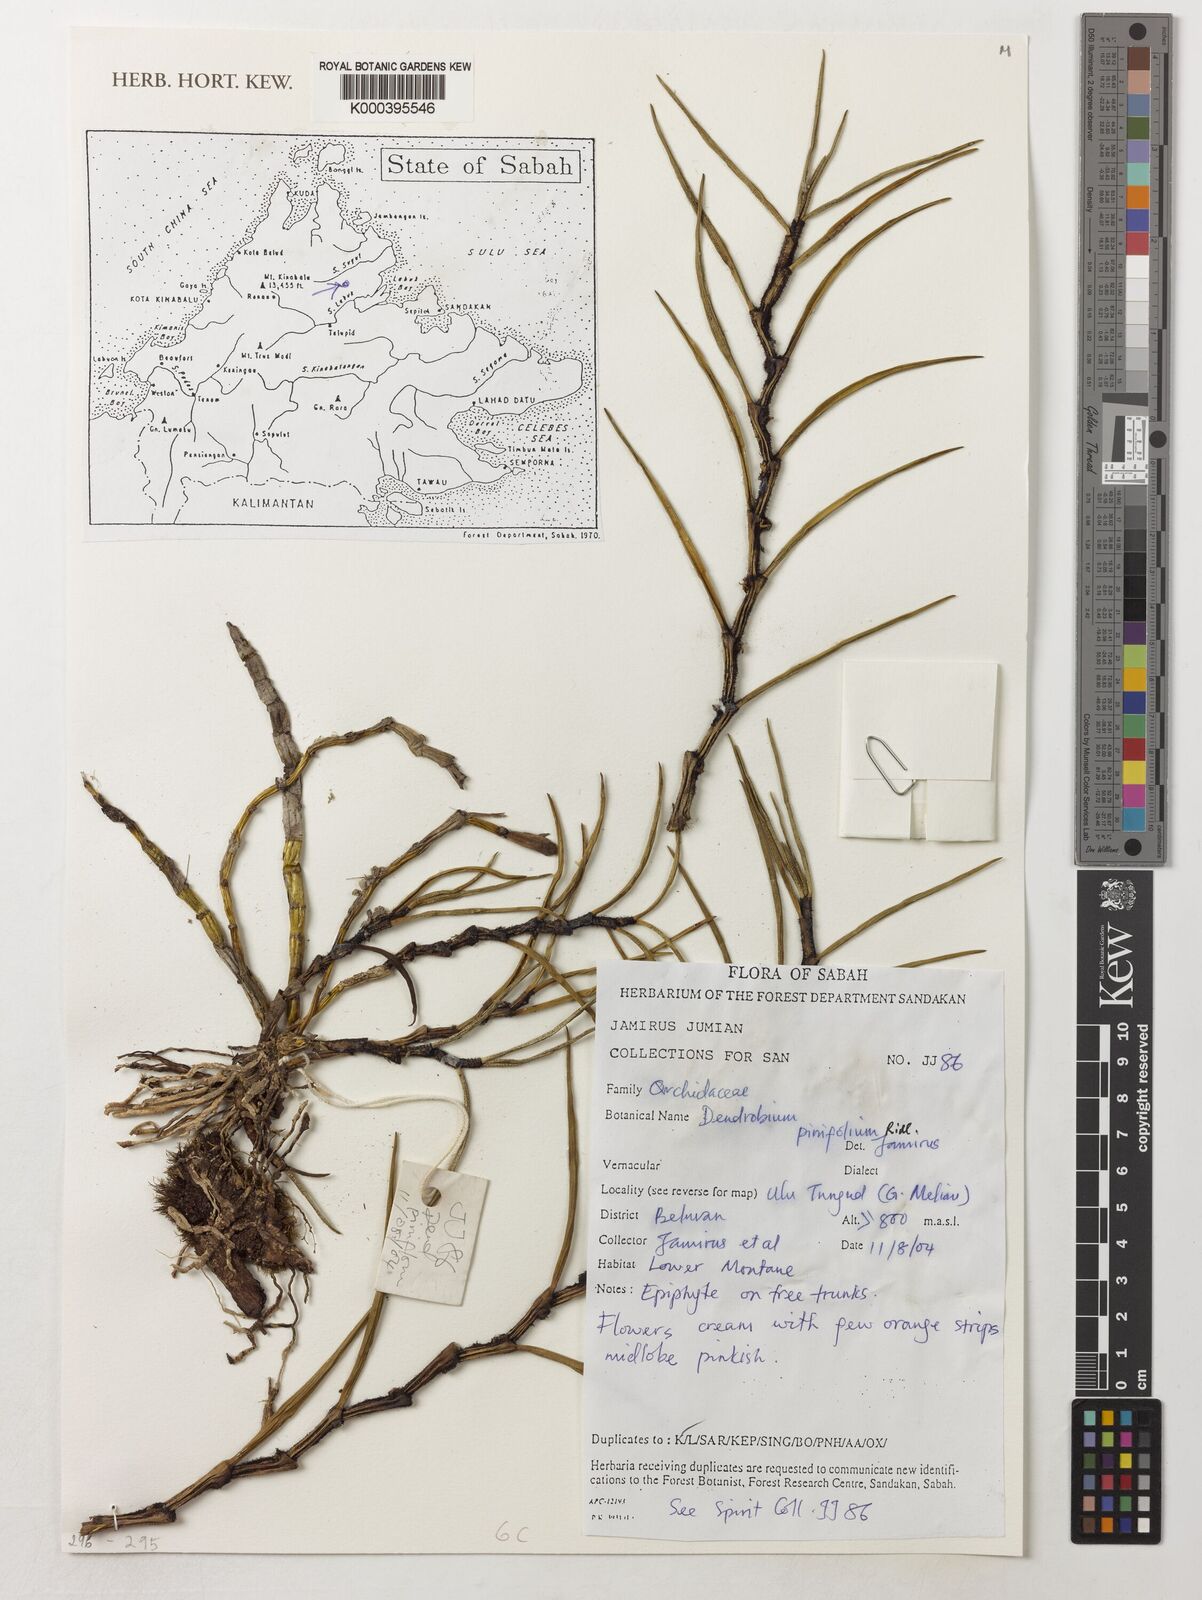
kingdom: Plantae
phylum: Tracheophyta
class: Liliopsida
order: Asparagales
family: Orchidaceae
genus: Dendrobium
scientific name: Dendrobium pinifolium
